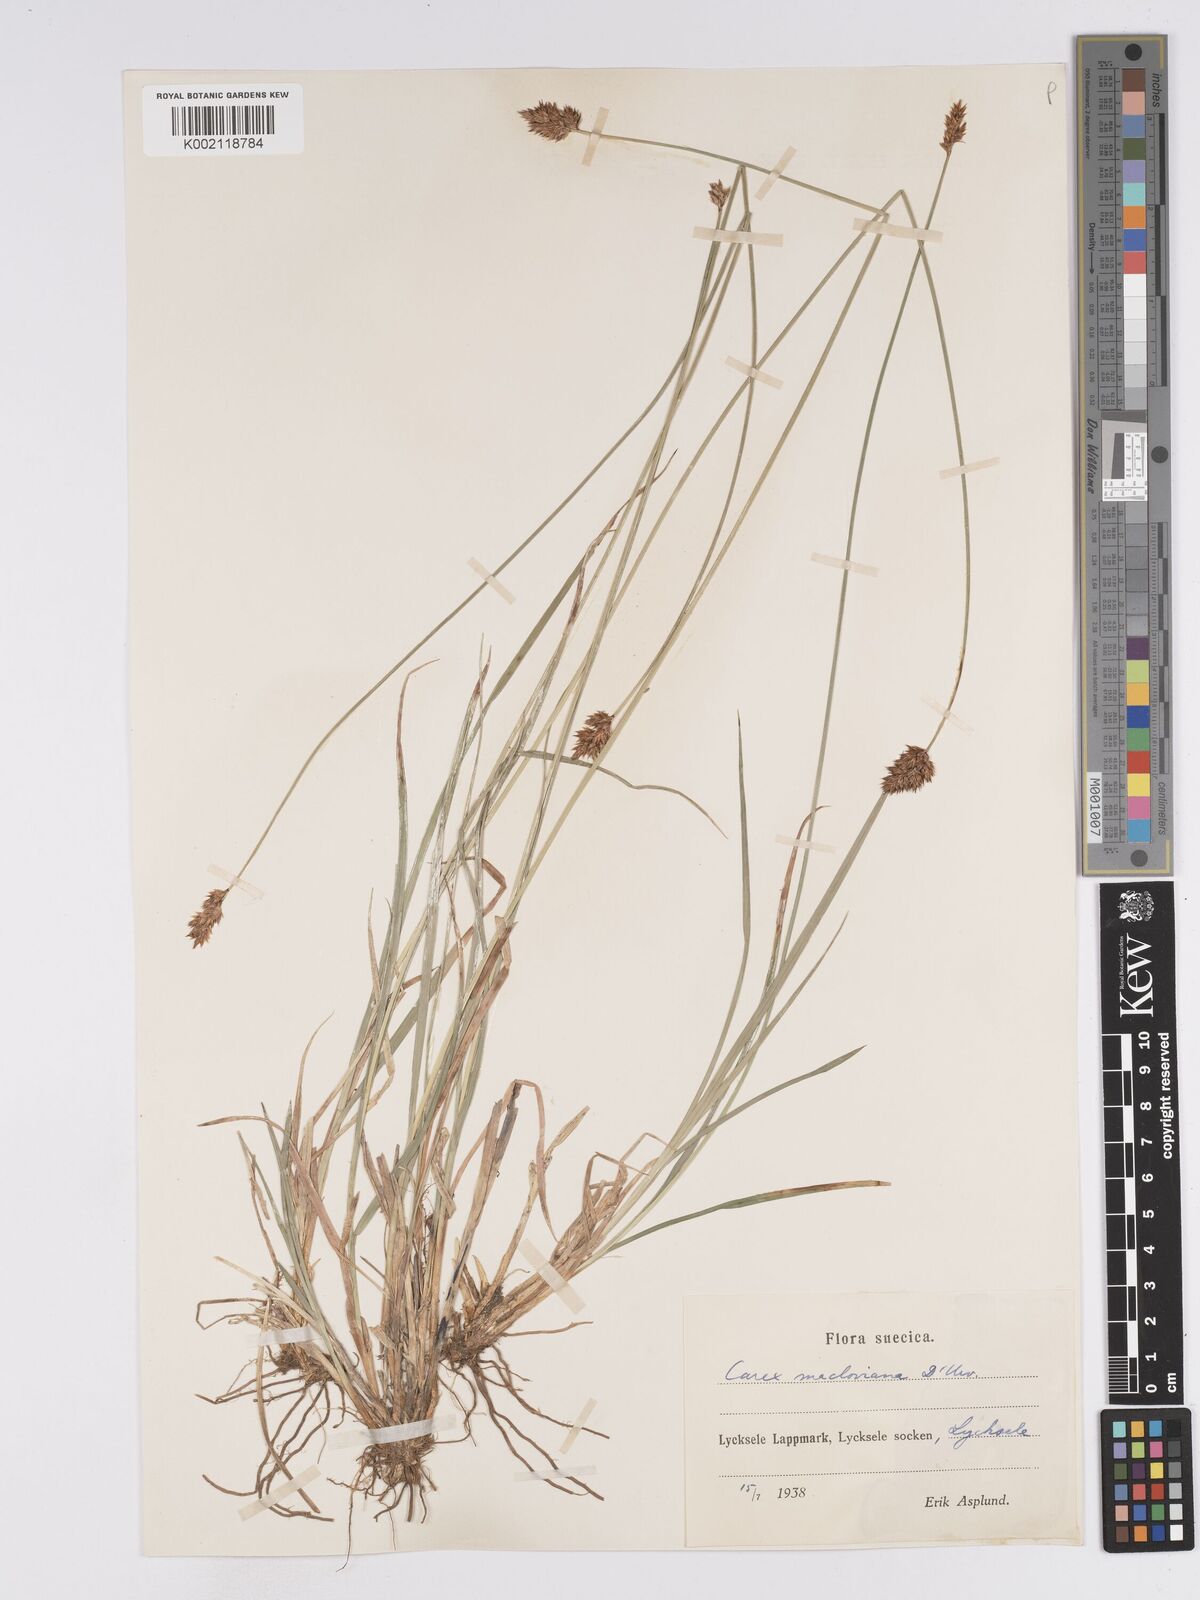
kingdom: Plantae
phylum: Tracheophyta
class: Liliopsida
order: Poales
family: Cyperaceae
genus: Carex
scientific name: Carex macloviana
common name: Falkland island sedge
